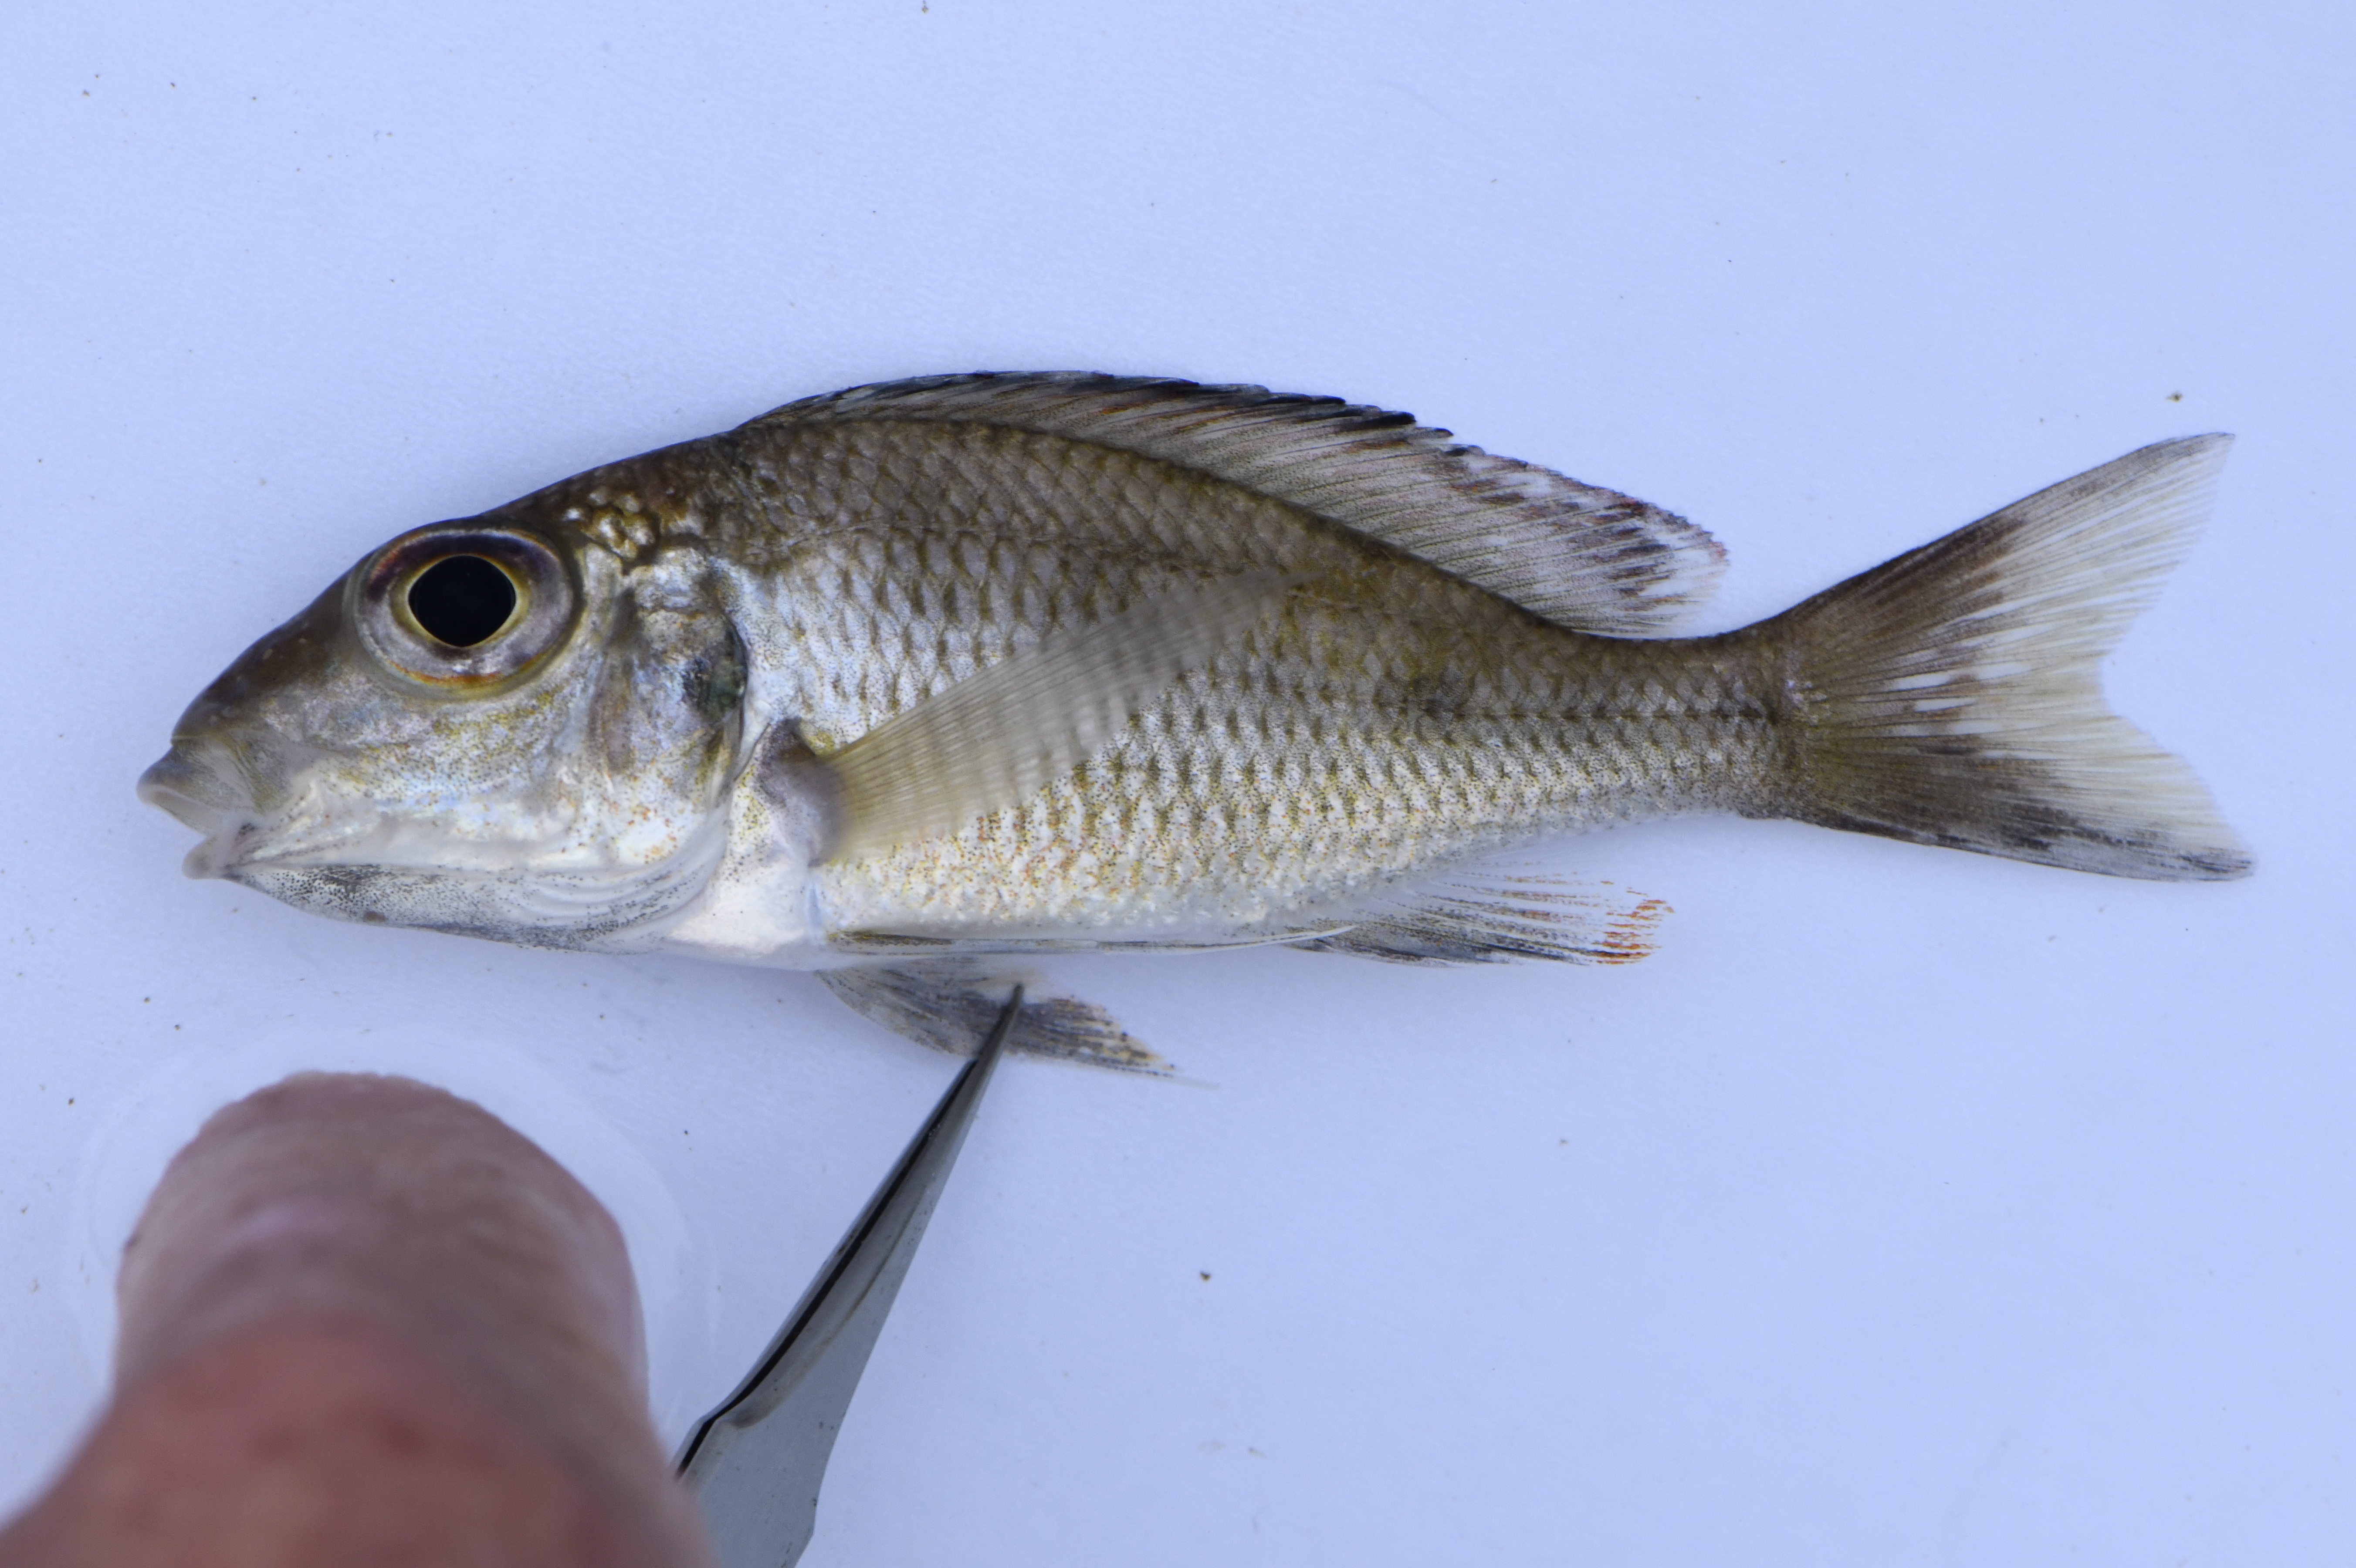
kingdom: Animalia
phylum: Chordata
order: Perciformes
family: Cichlidae
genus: Callochromis
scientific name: Callochromis macrops
